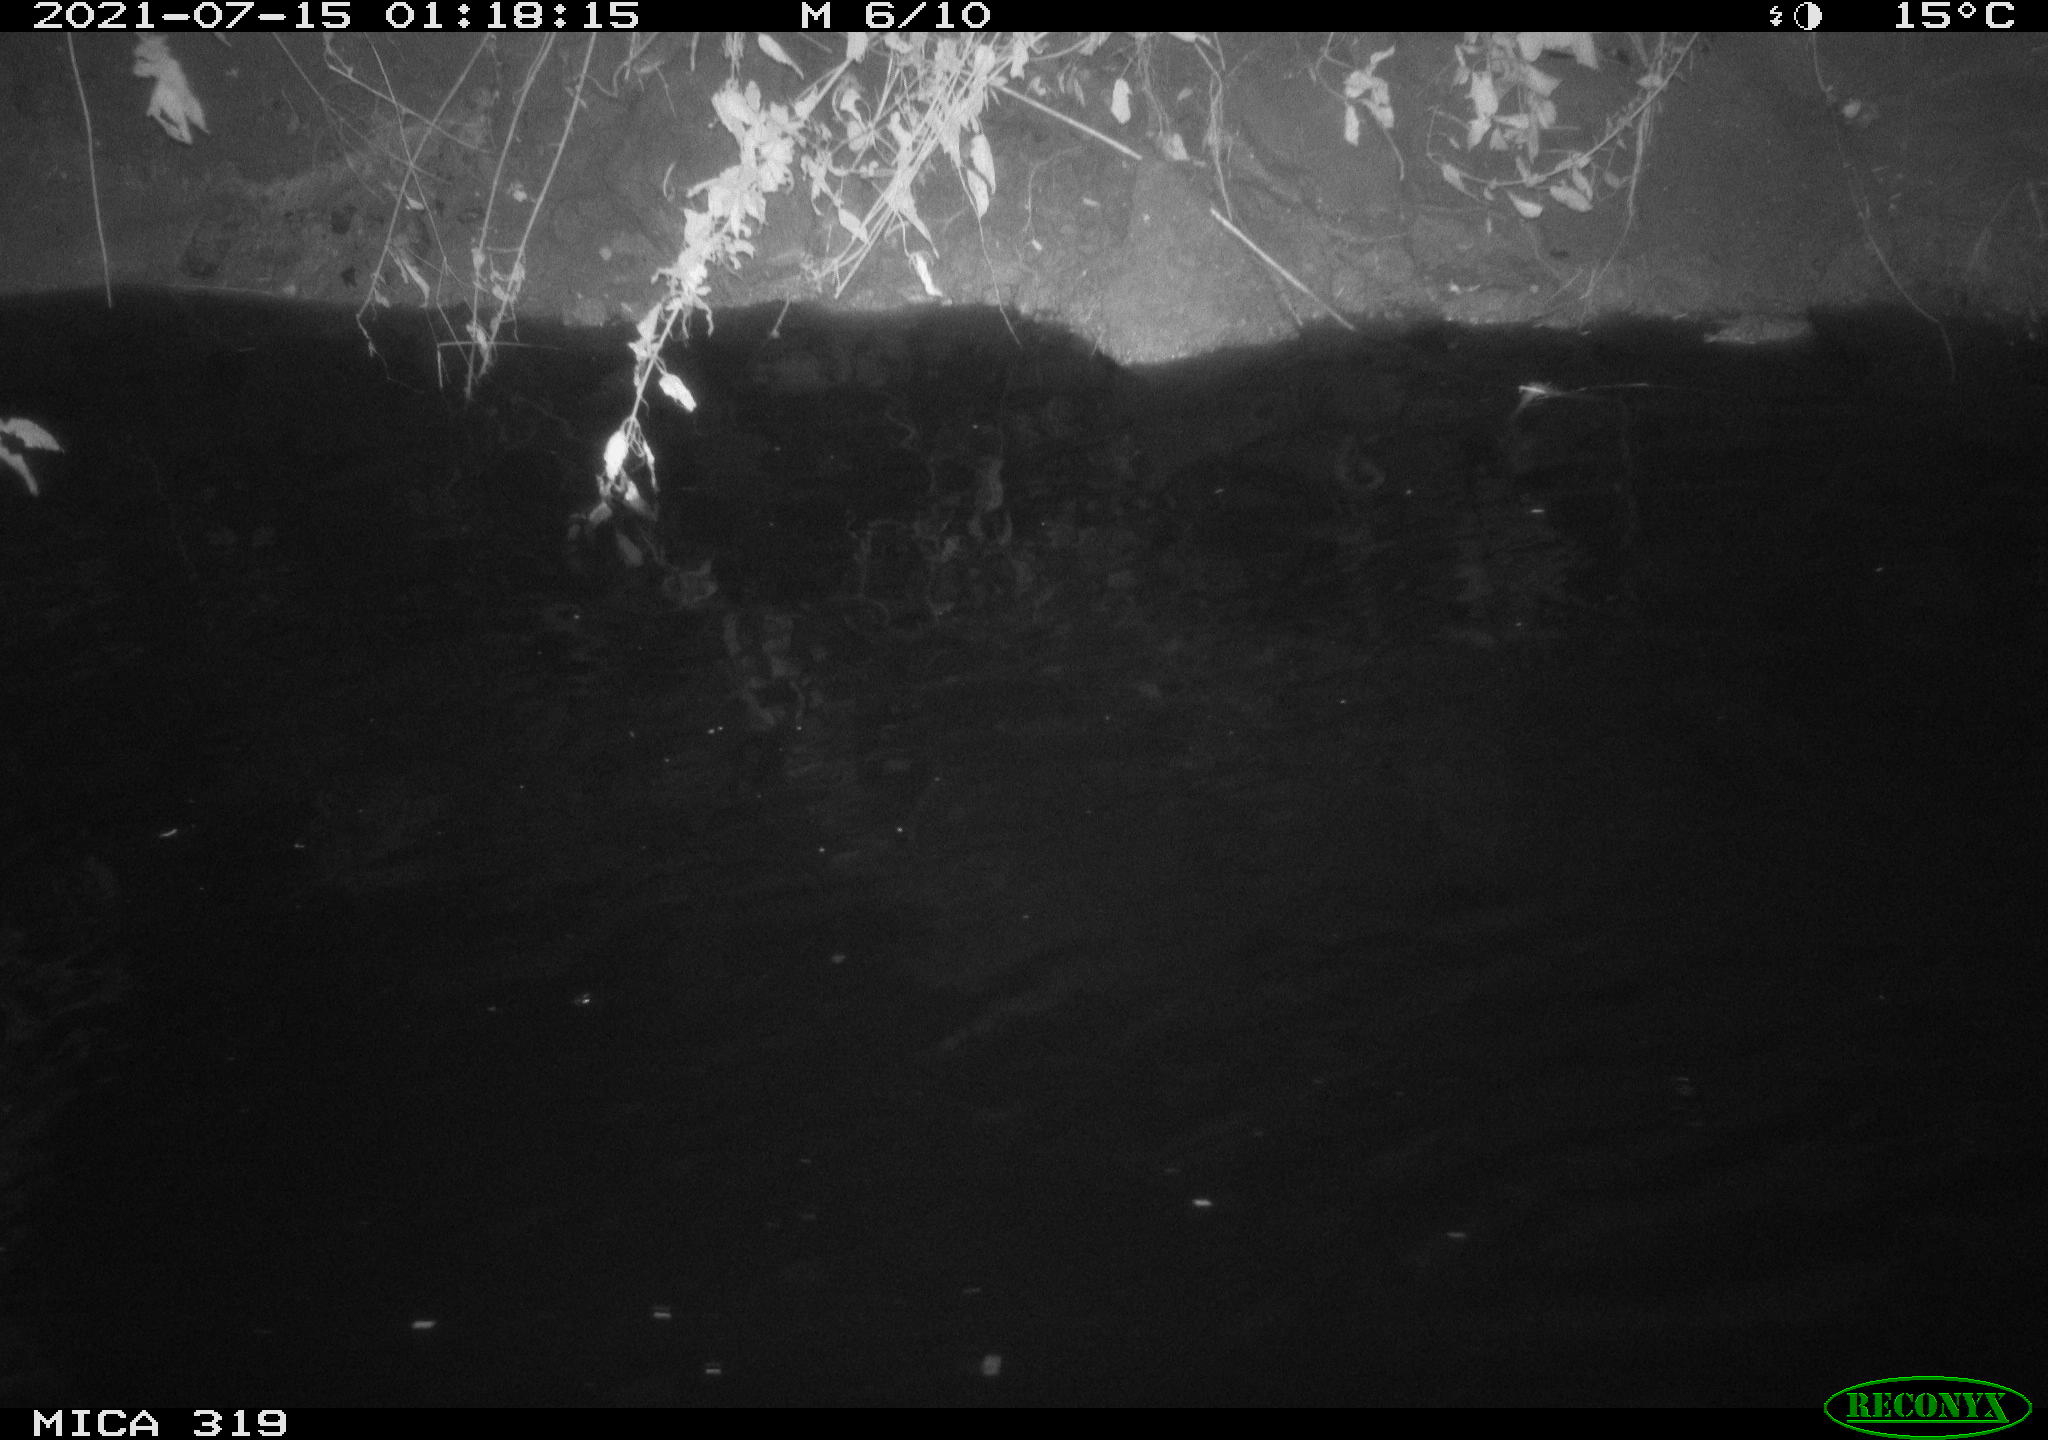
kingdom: Animalia
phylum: Chordata
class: Aves
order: Anseriformes
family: Anatidae
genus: Anas
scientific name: Anas platyrhynchos
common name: Mallard
